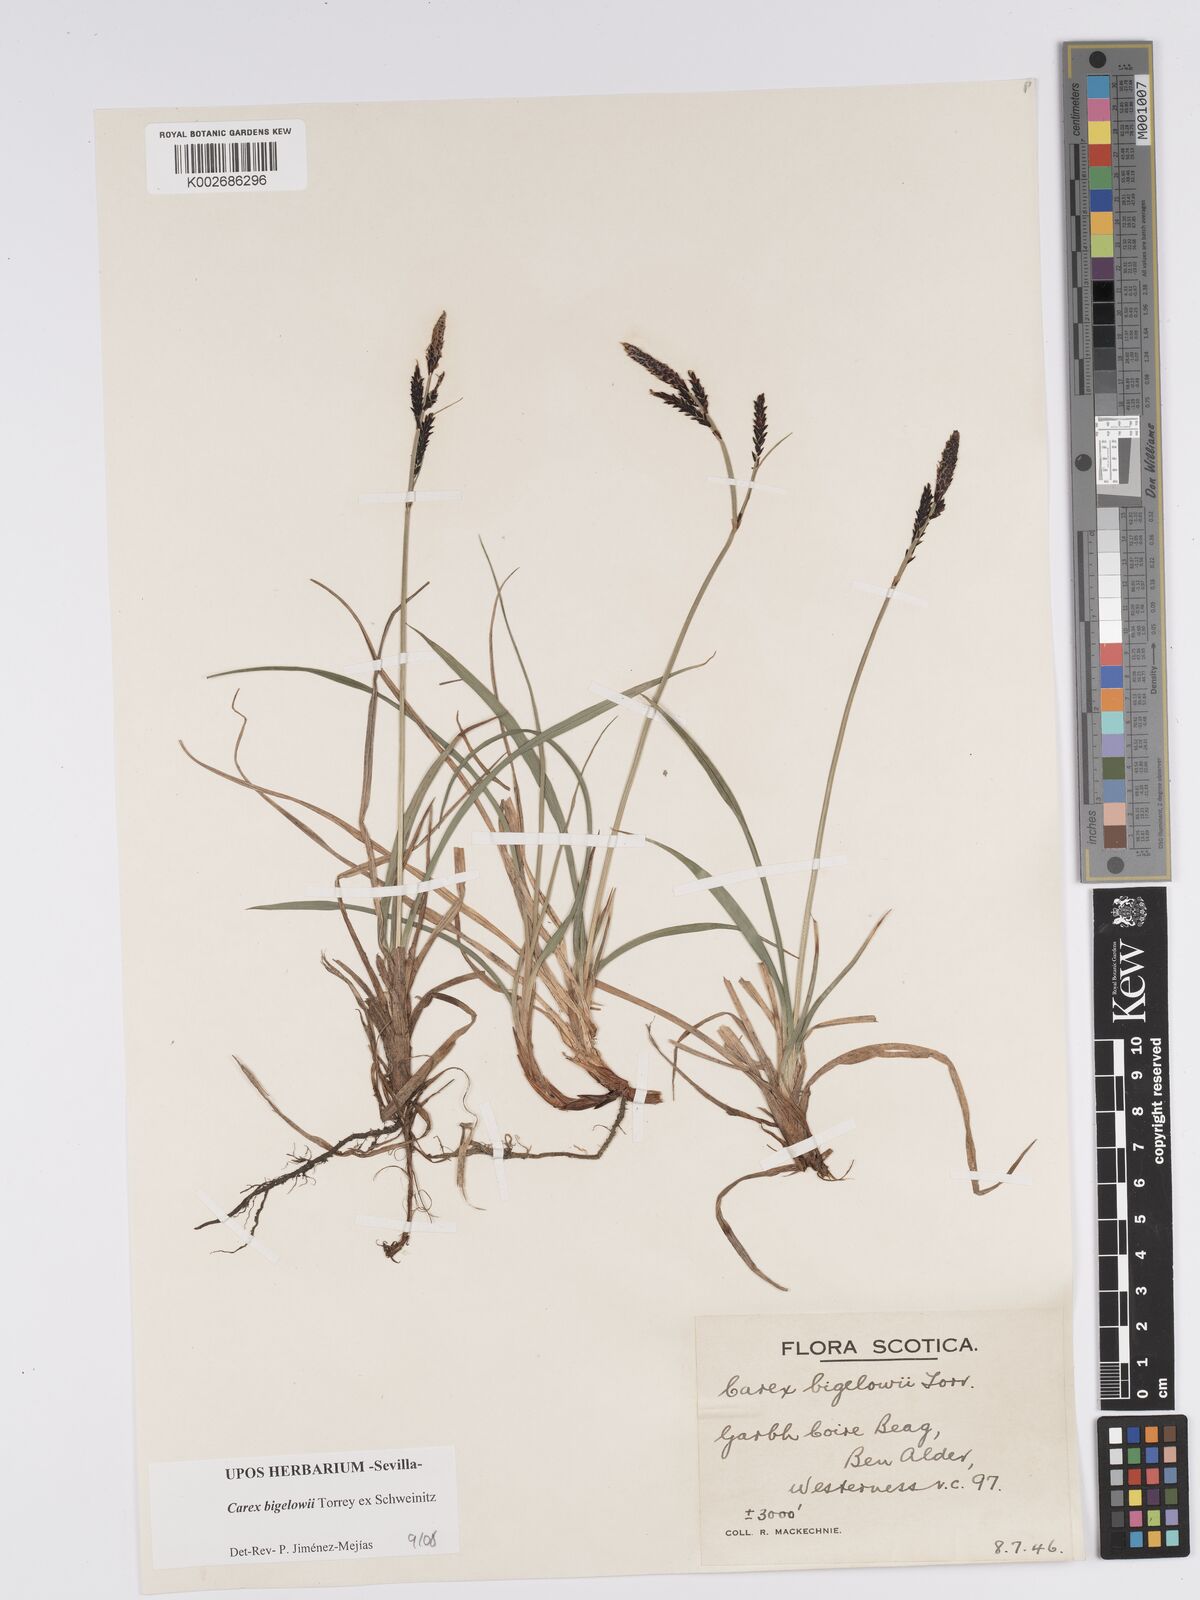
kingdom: Plantae
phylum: Tracheophyta
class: Liliopsida
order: Poales
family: Cyperaceae
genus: Carex
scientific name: Carex bigelowii
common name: Stiff sedge
